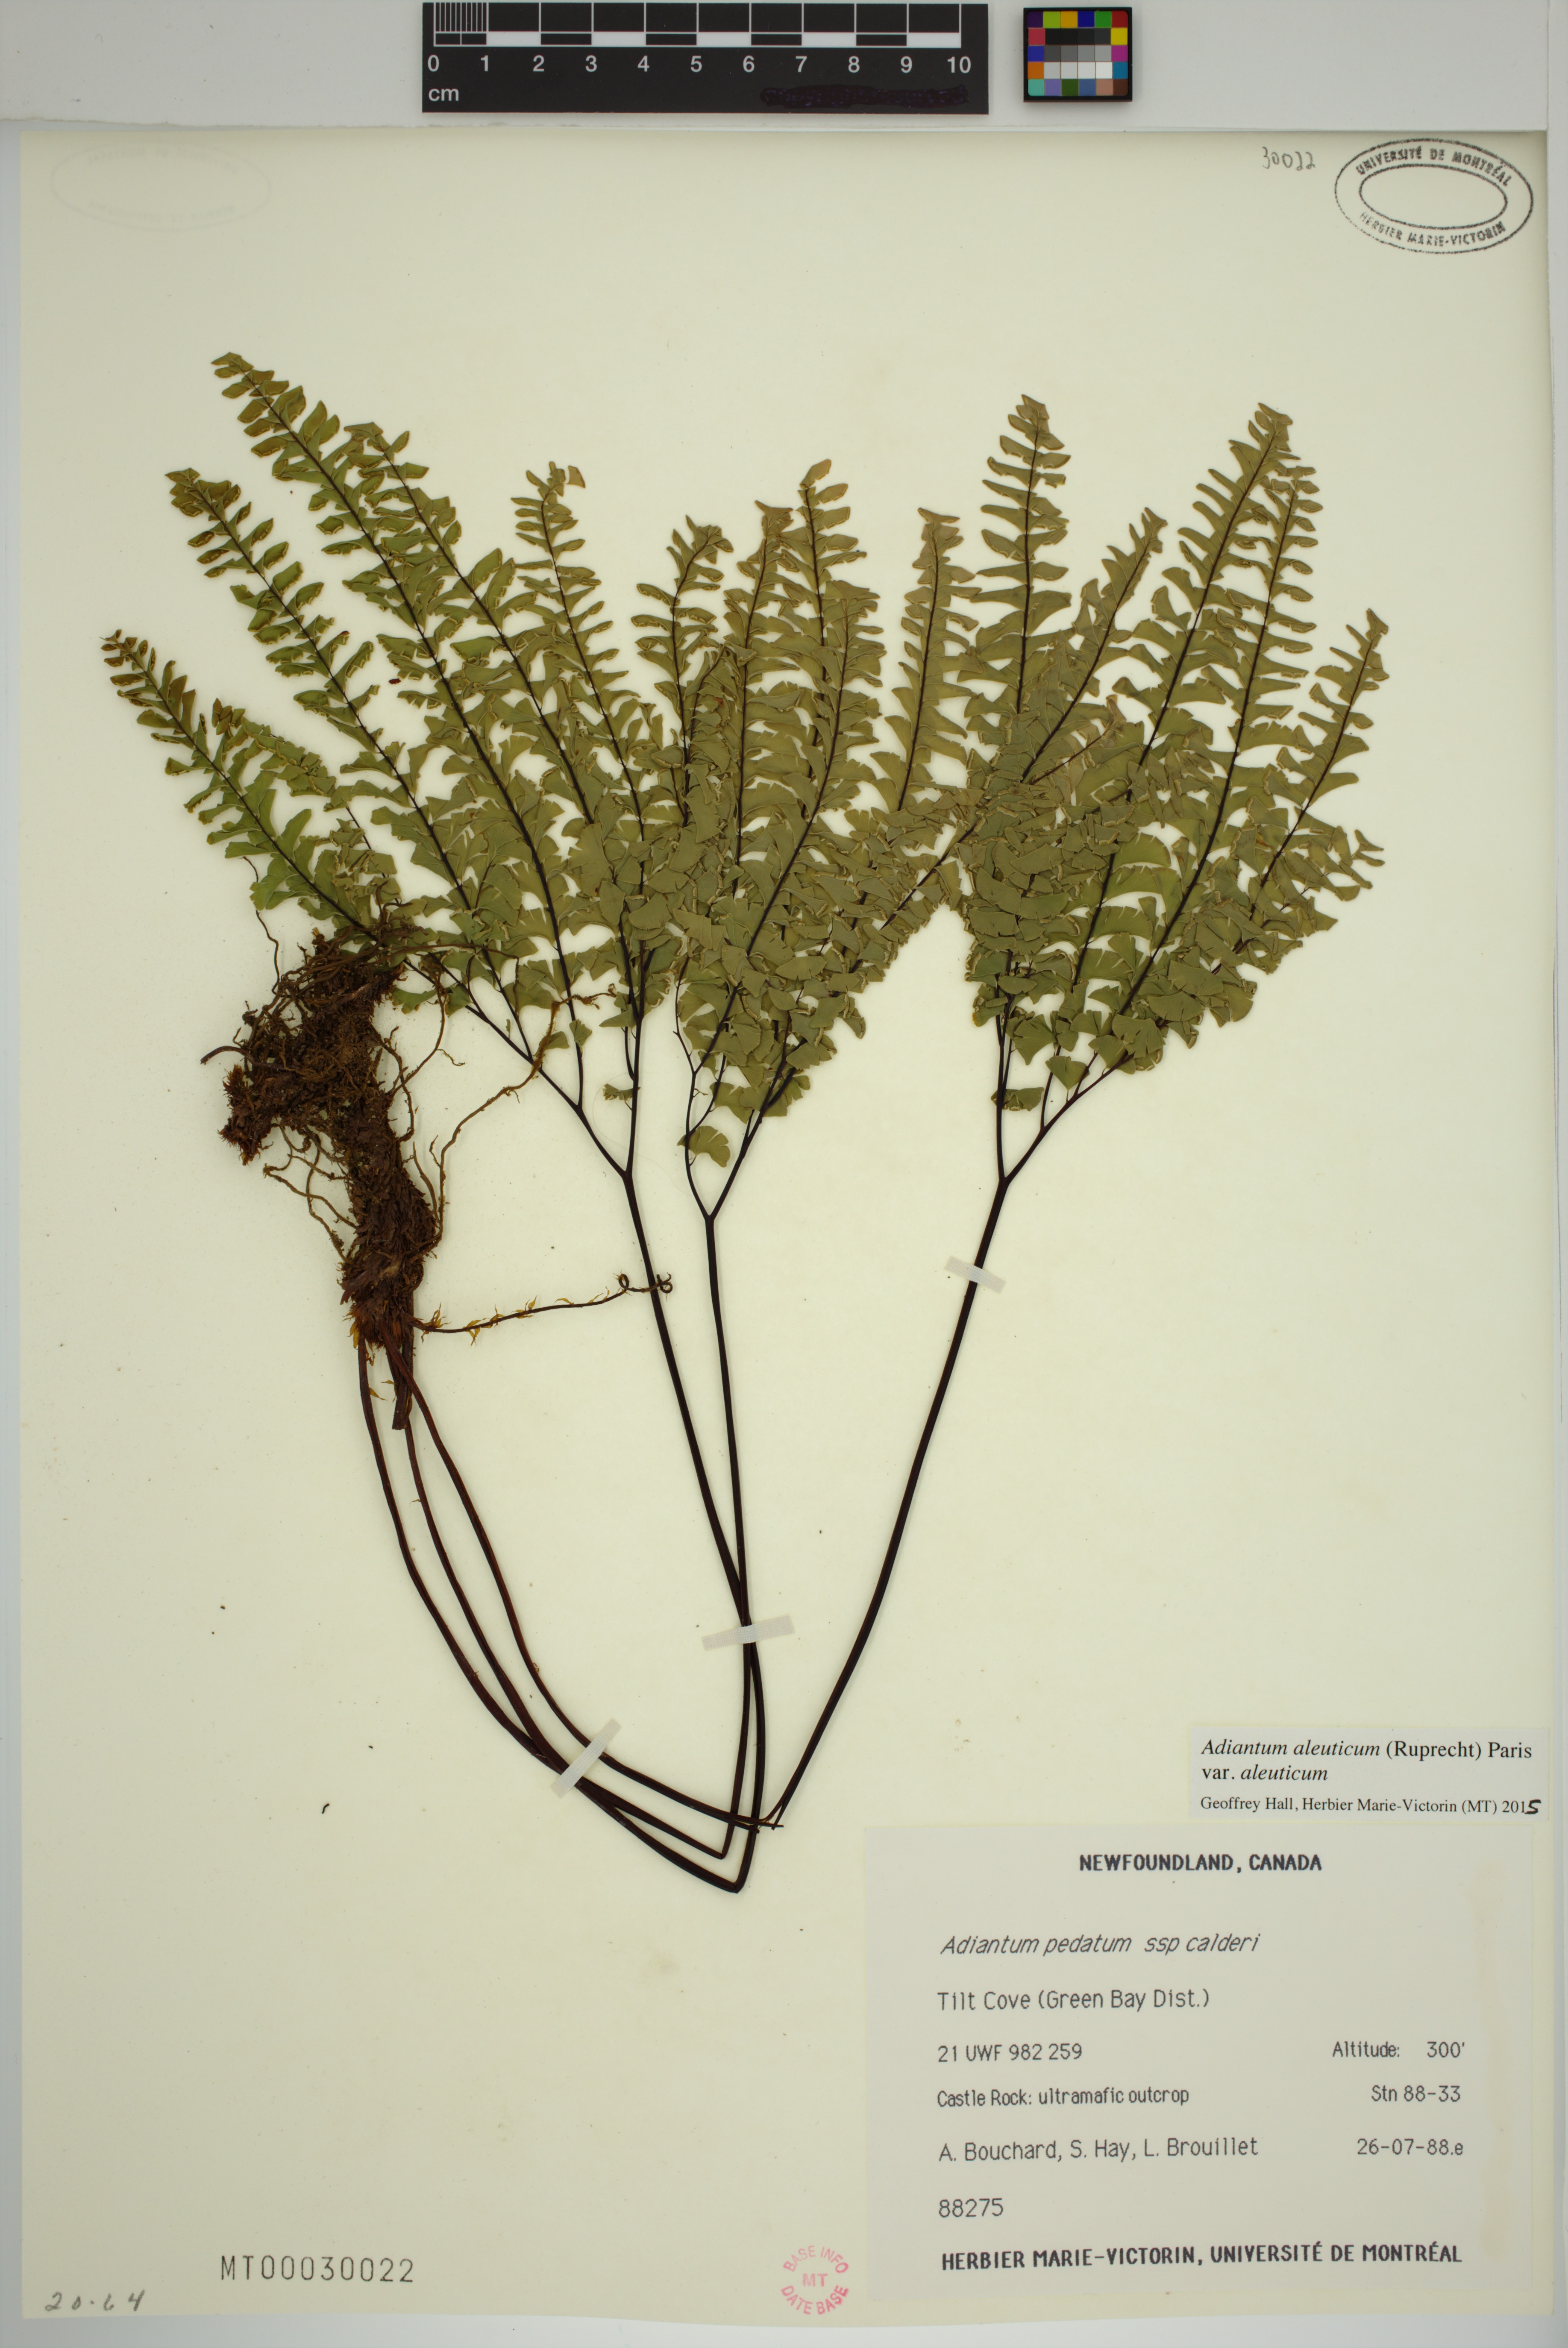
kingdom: Plantae
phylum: Tracheophyta
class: Polypodiopsida
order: Polypodiales
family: Pteridaceae
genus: Adiantum
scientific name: Adiantum aleuticum
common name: Aleutian maidenhair fern
